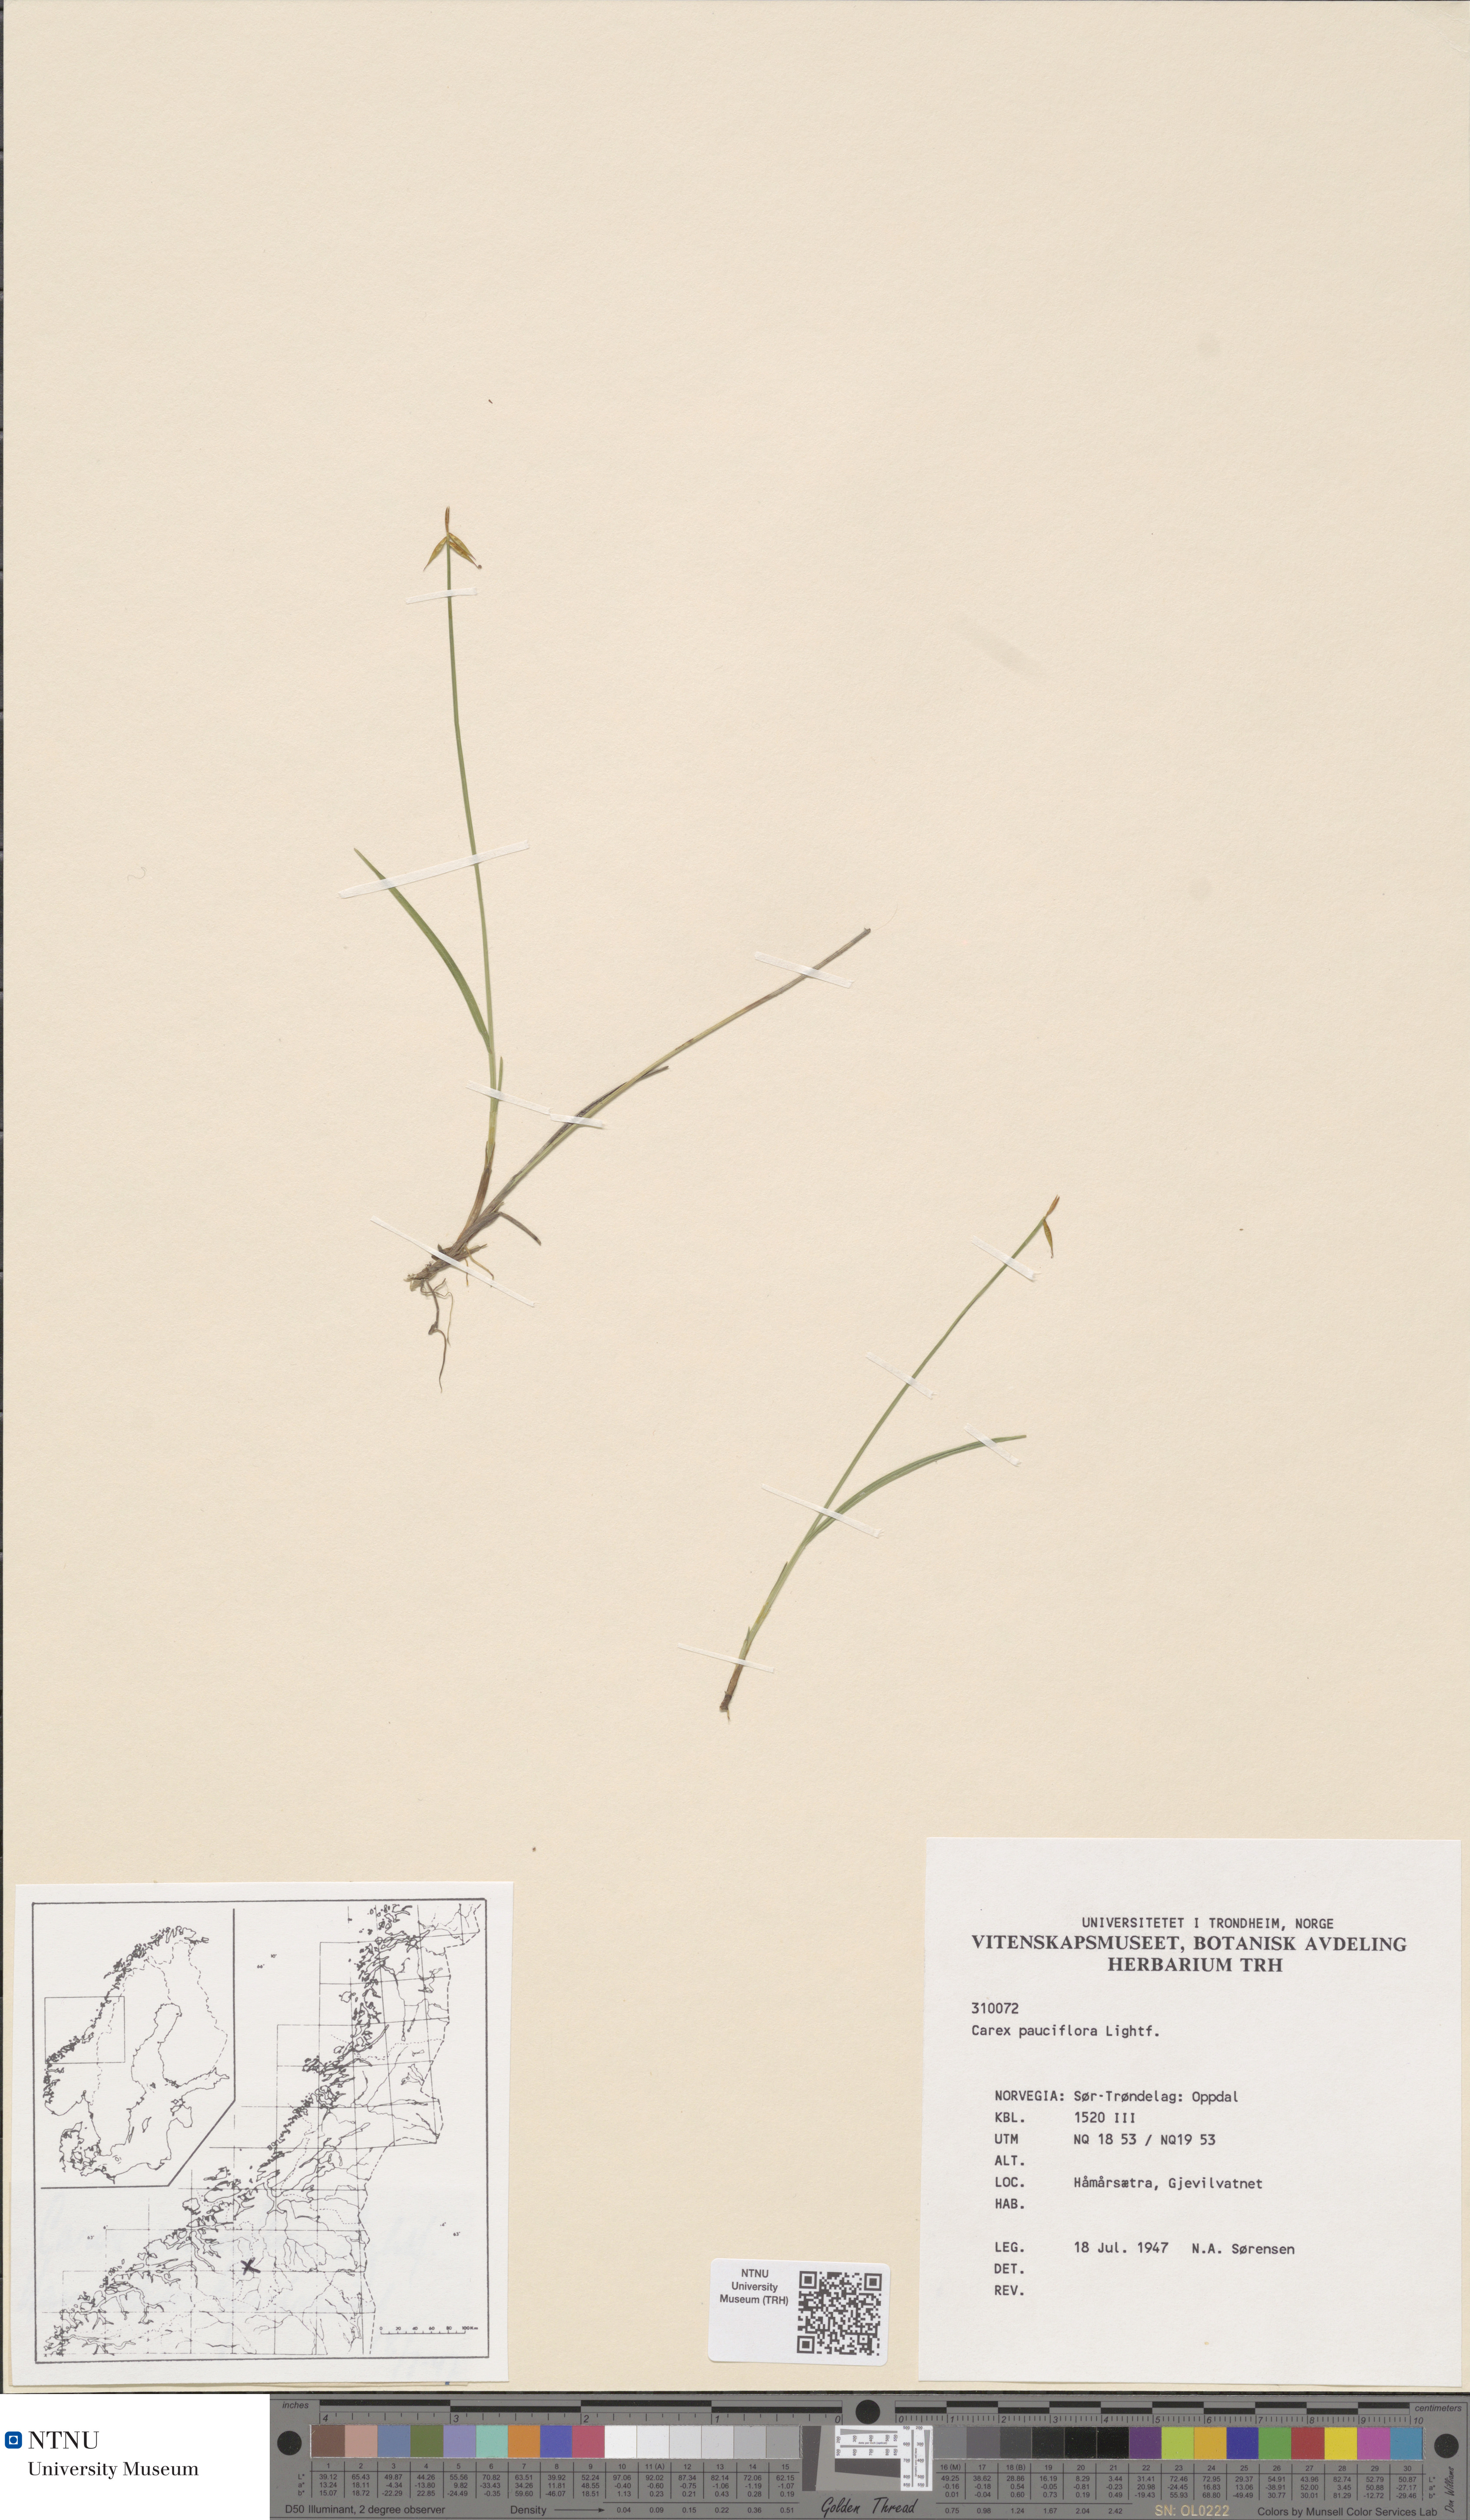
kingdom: Plantae
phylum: Tracheophyta
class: Liliopsida
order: Poales
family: Cyperaceae
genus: Carex
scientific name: Carex pauciflora
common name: Few-flowered sedge
